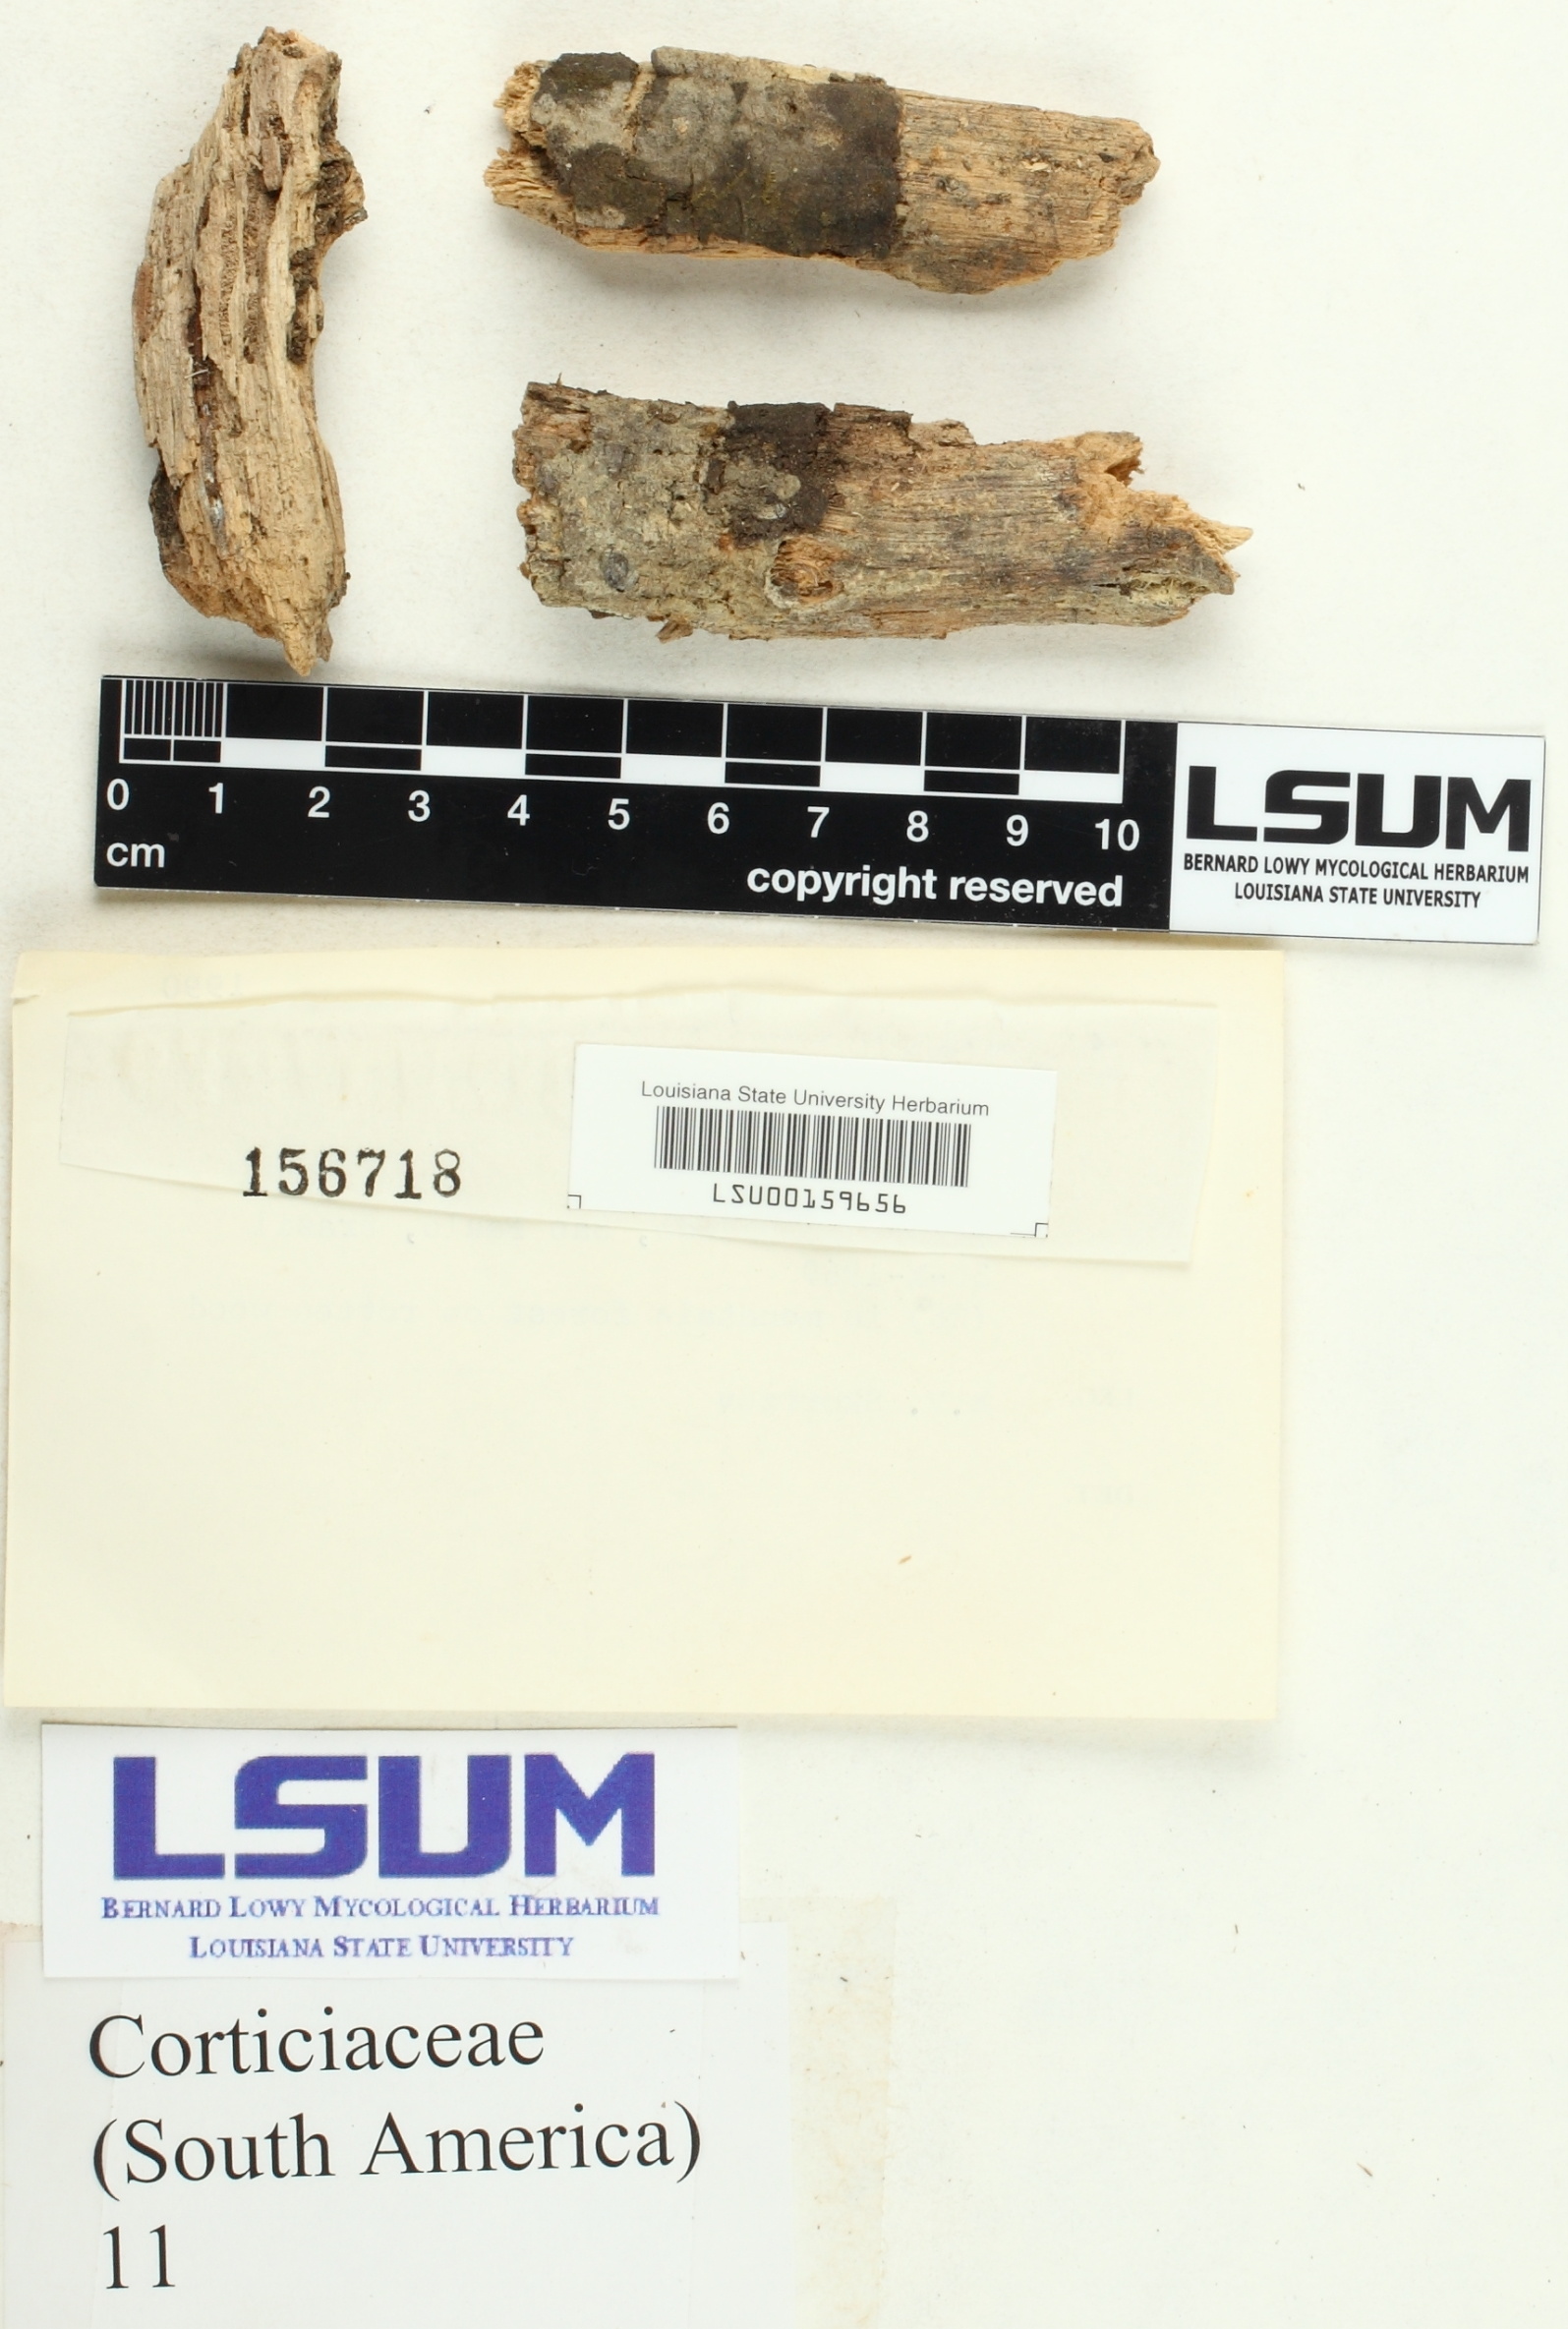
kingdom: Fungi
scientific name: Fungi
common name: Fungi
